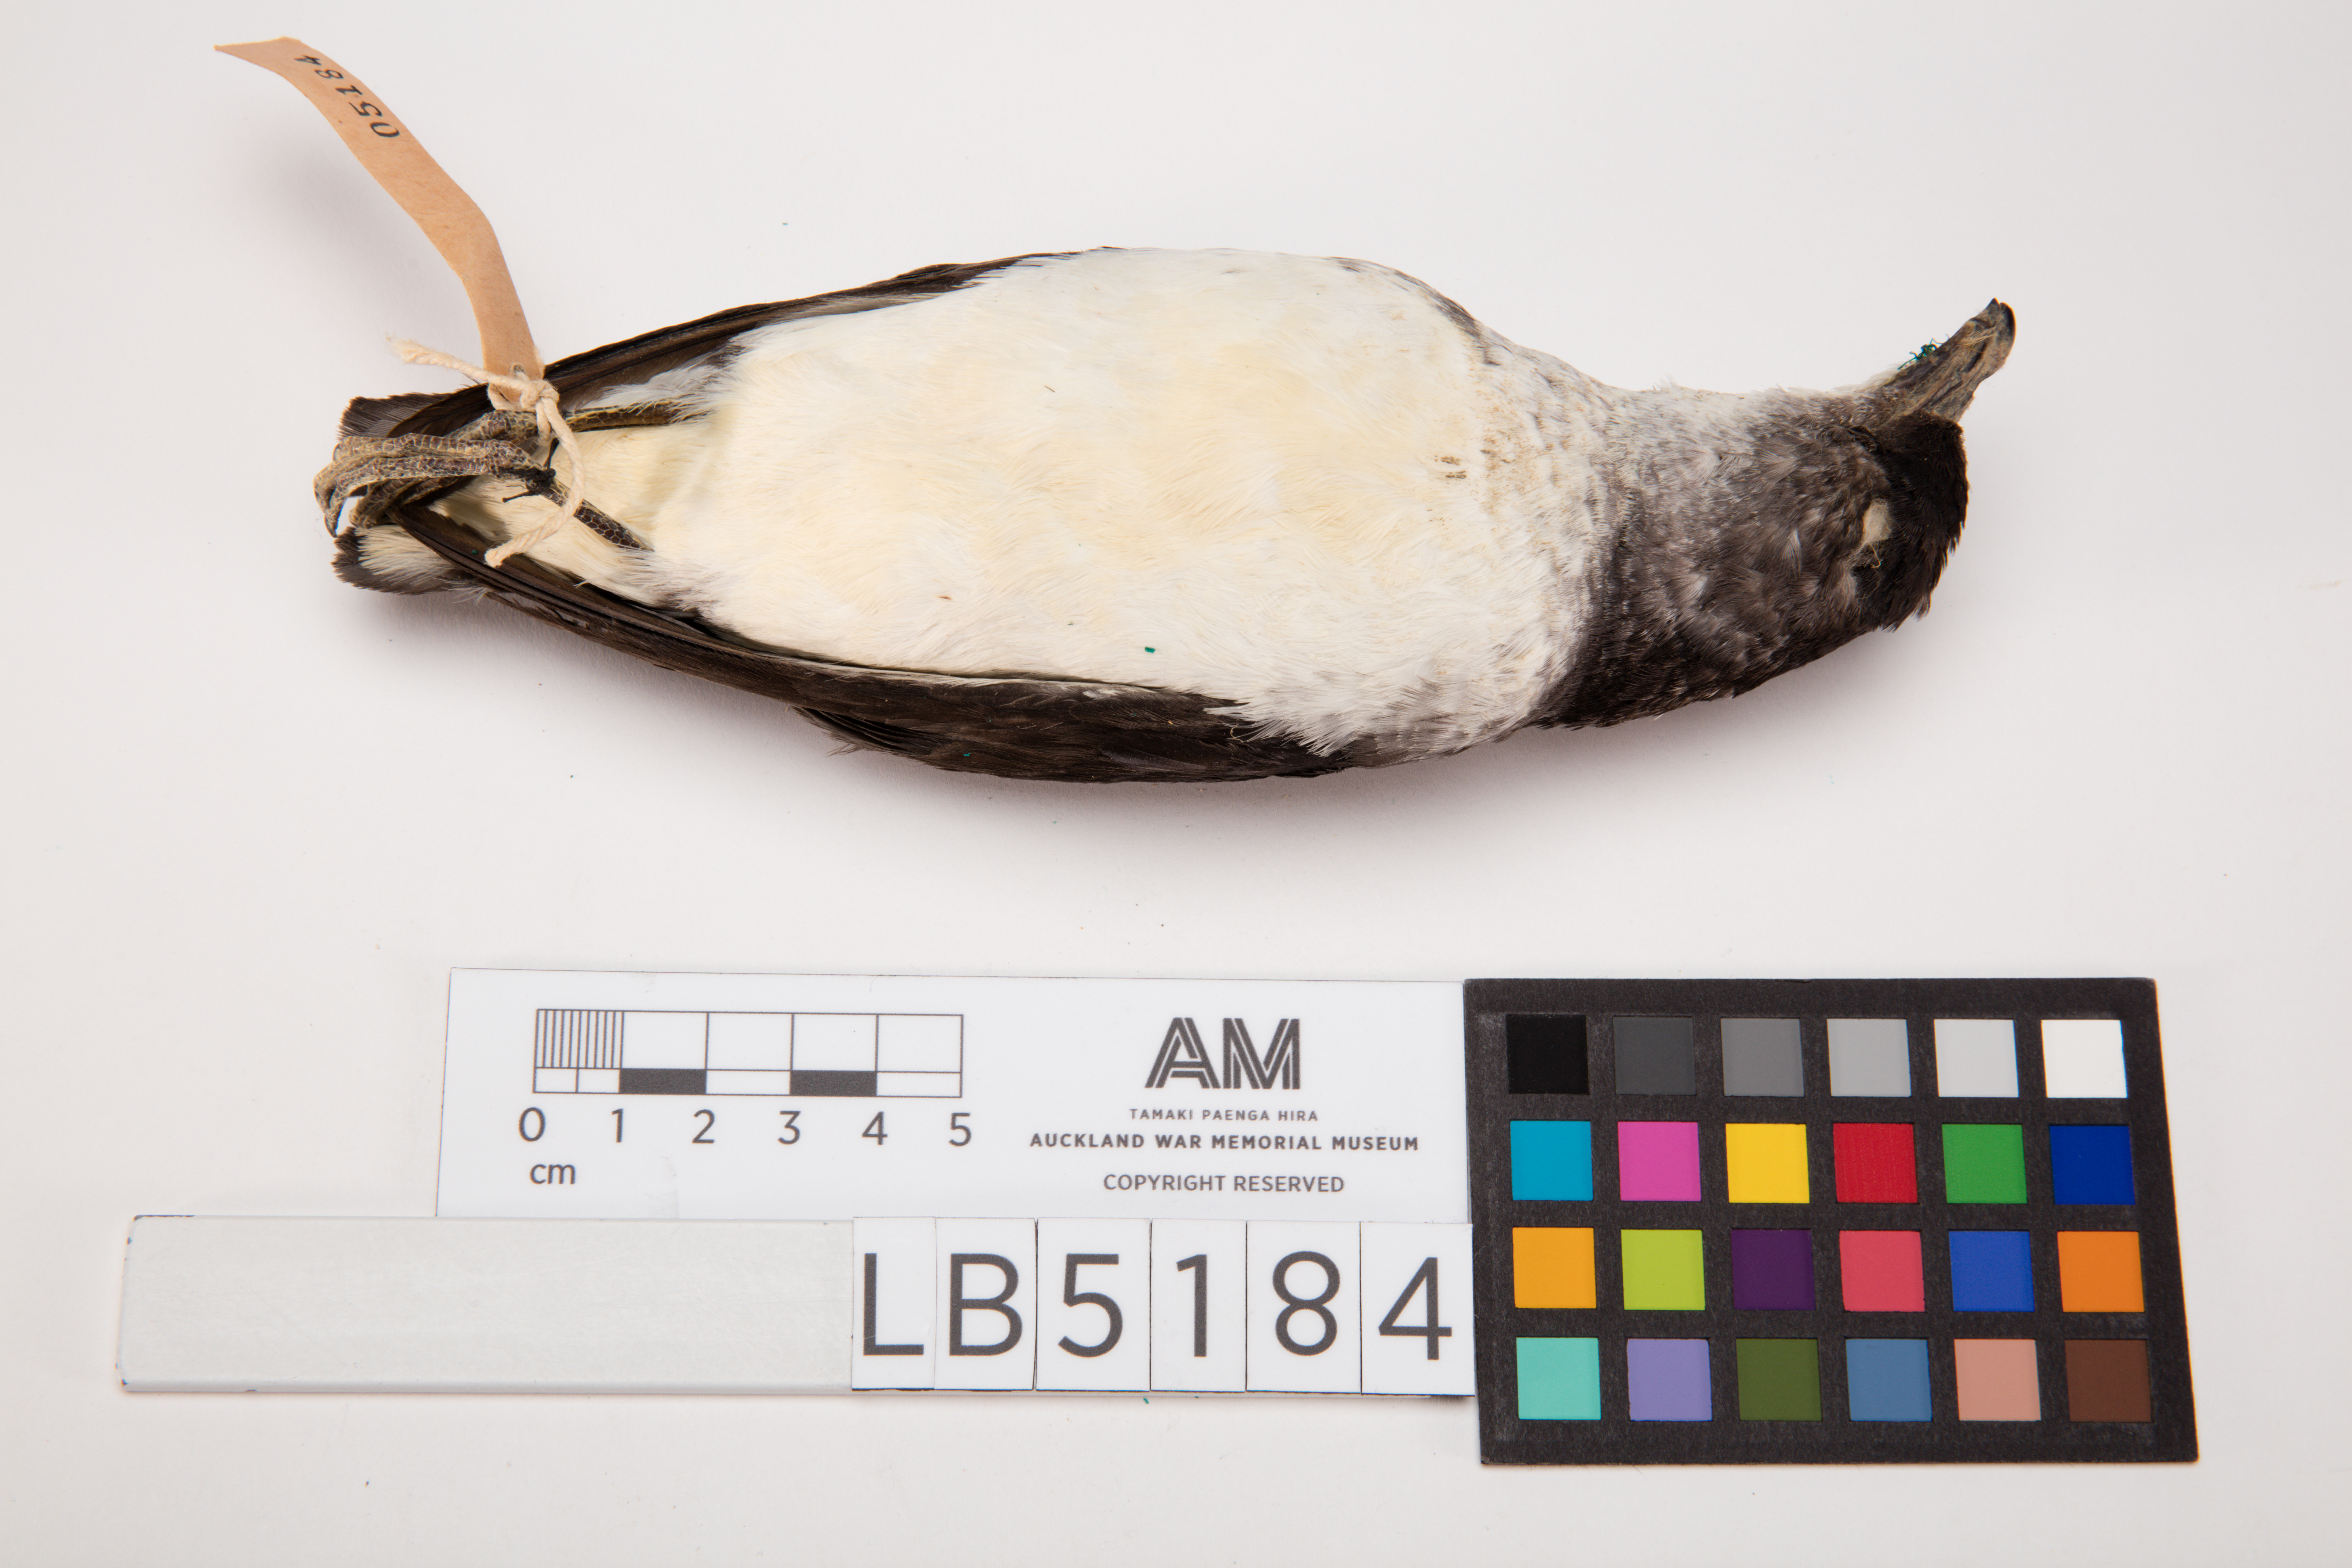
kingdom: Animalia
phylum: Chordata
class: Aves
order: Procellariiformes
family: Pelecanoididae
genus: Pelecanoides
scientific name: Pelecanoides urinatrix
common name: Common diving-petrel
